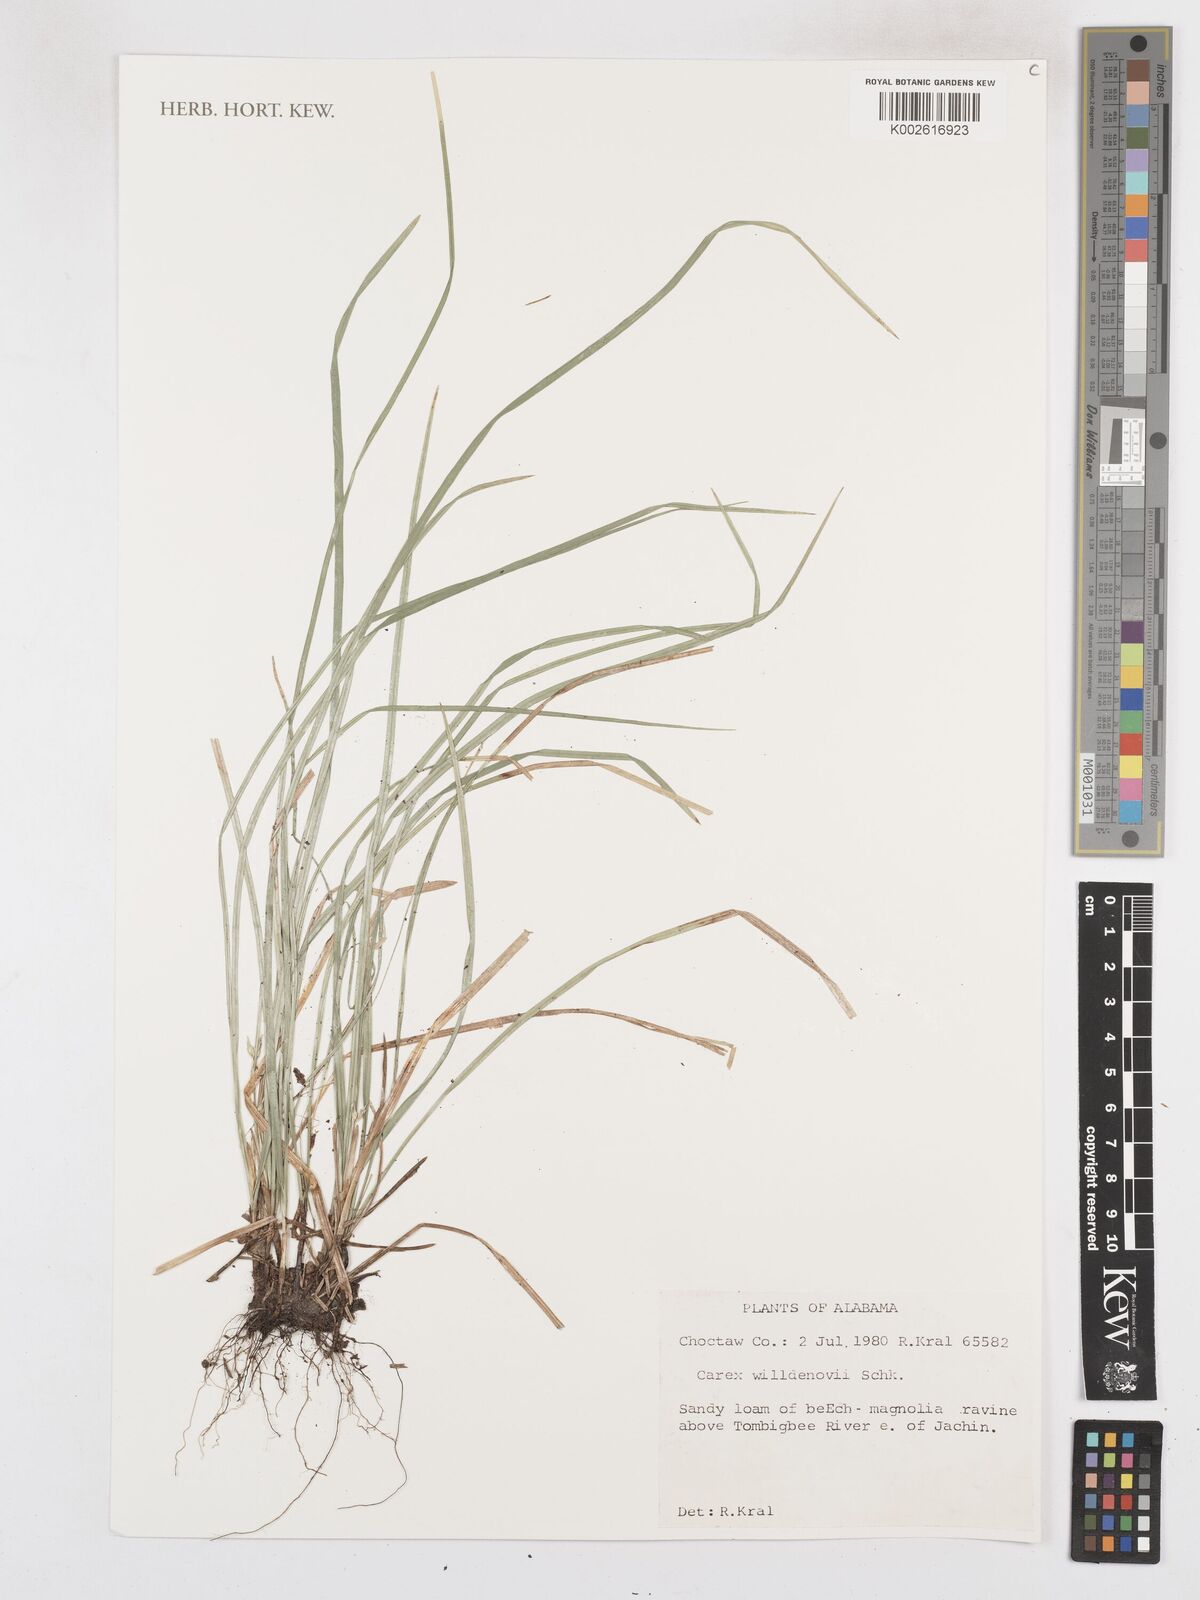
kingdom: Plantae
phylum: Tracheophyta
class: Liliopsida
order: Poales
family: Cyperaceae
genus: Carex
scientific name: Carex willdenowii
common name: Willdenow's sedge
